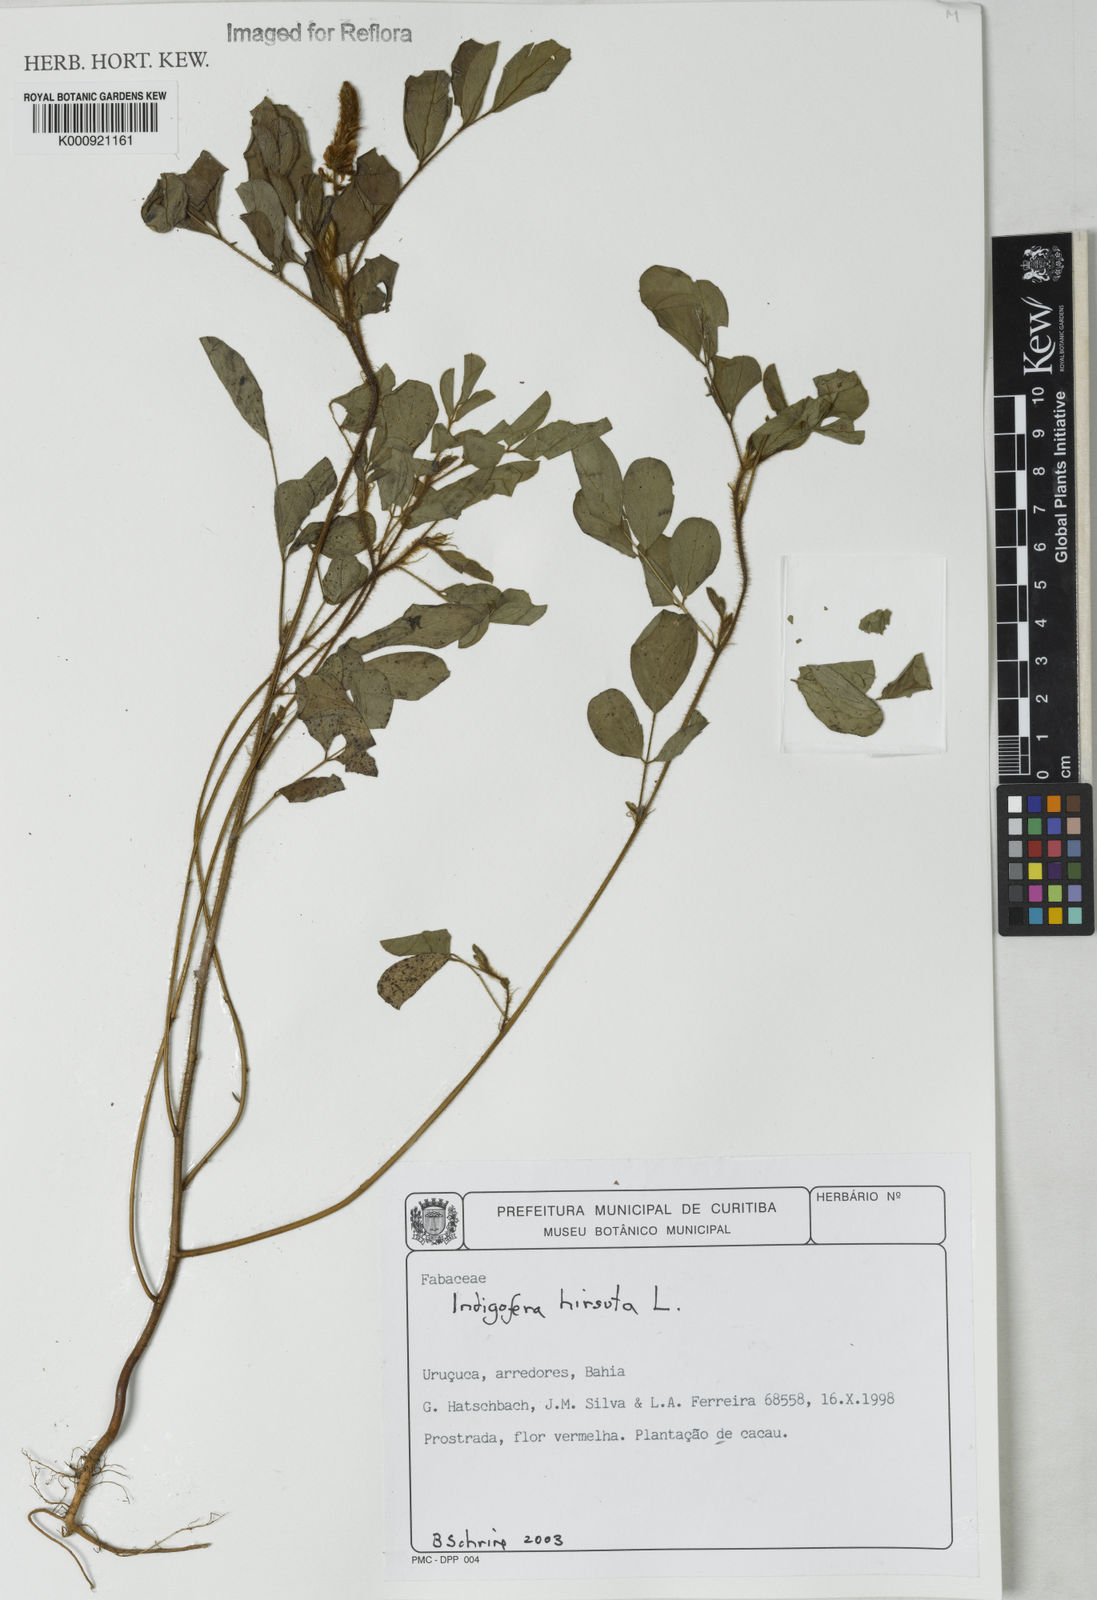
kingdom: Plantae
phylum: Tracheophyta
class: Magnoliopsida
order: Fabales
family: Fabaceae
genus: Indigofera
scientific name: Indigofera hirsuta
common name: Hairy indigo
